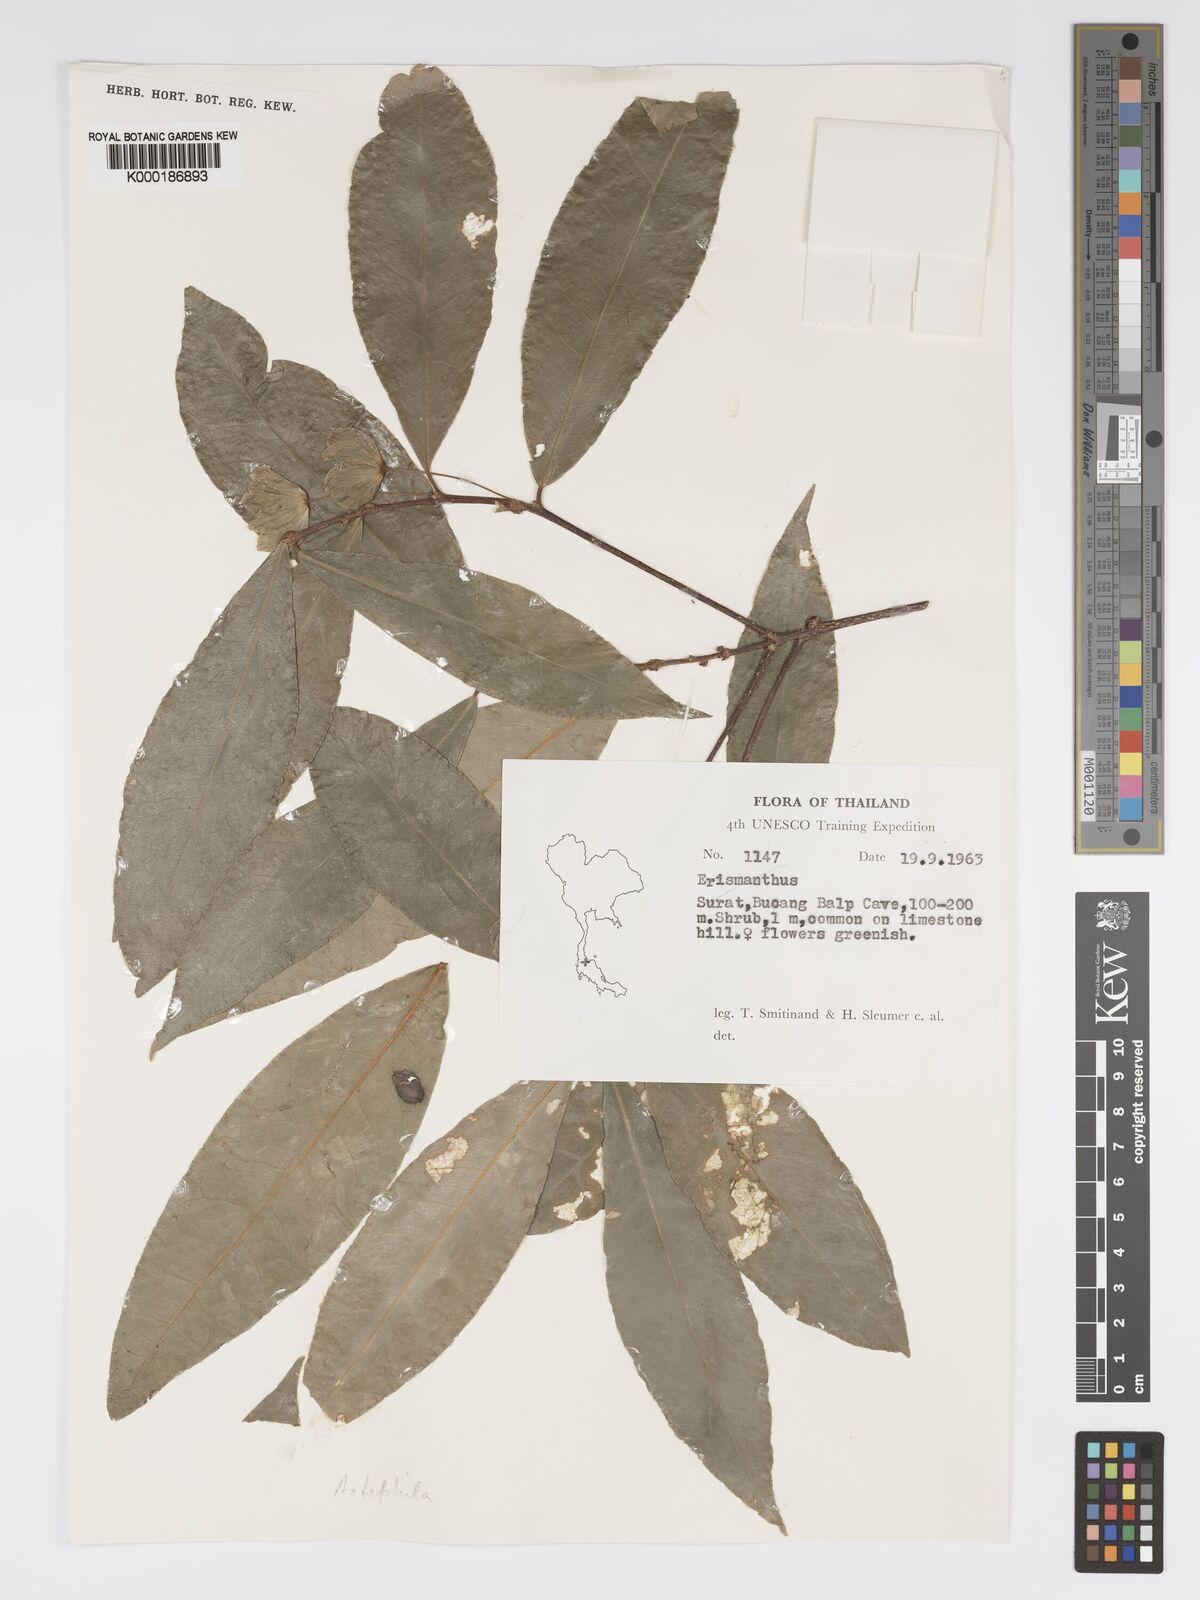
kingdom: Plantae
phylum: Tracheophyta
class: Magnoliopsida
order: Malpighiales
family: Phyllanthaceae
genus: Actephila
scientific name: Actephila ovalis
